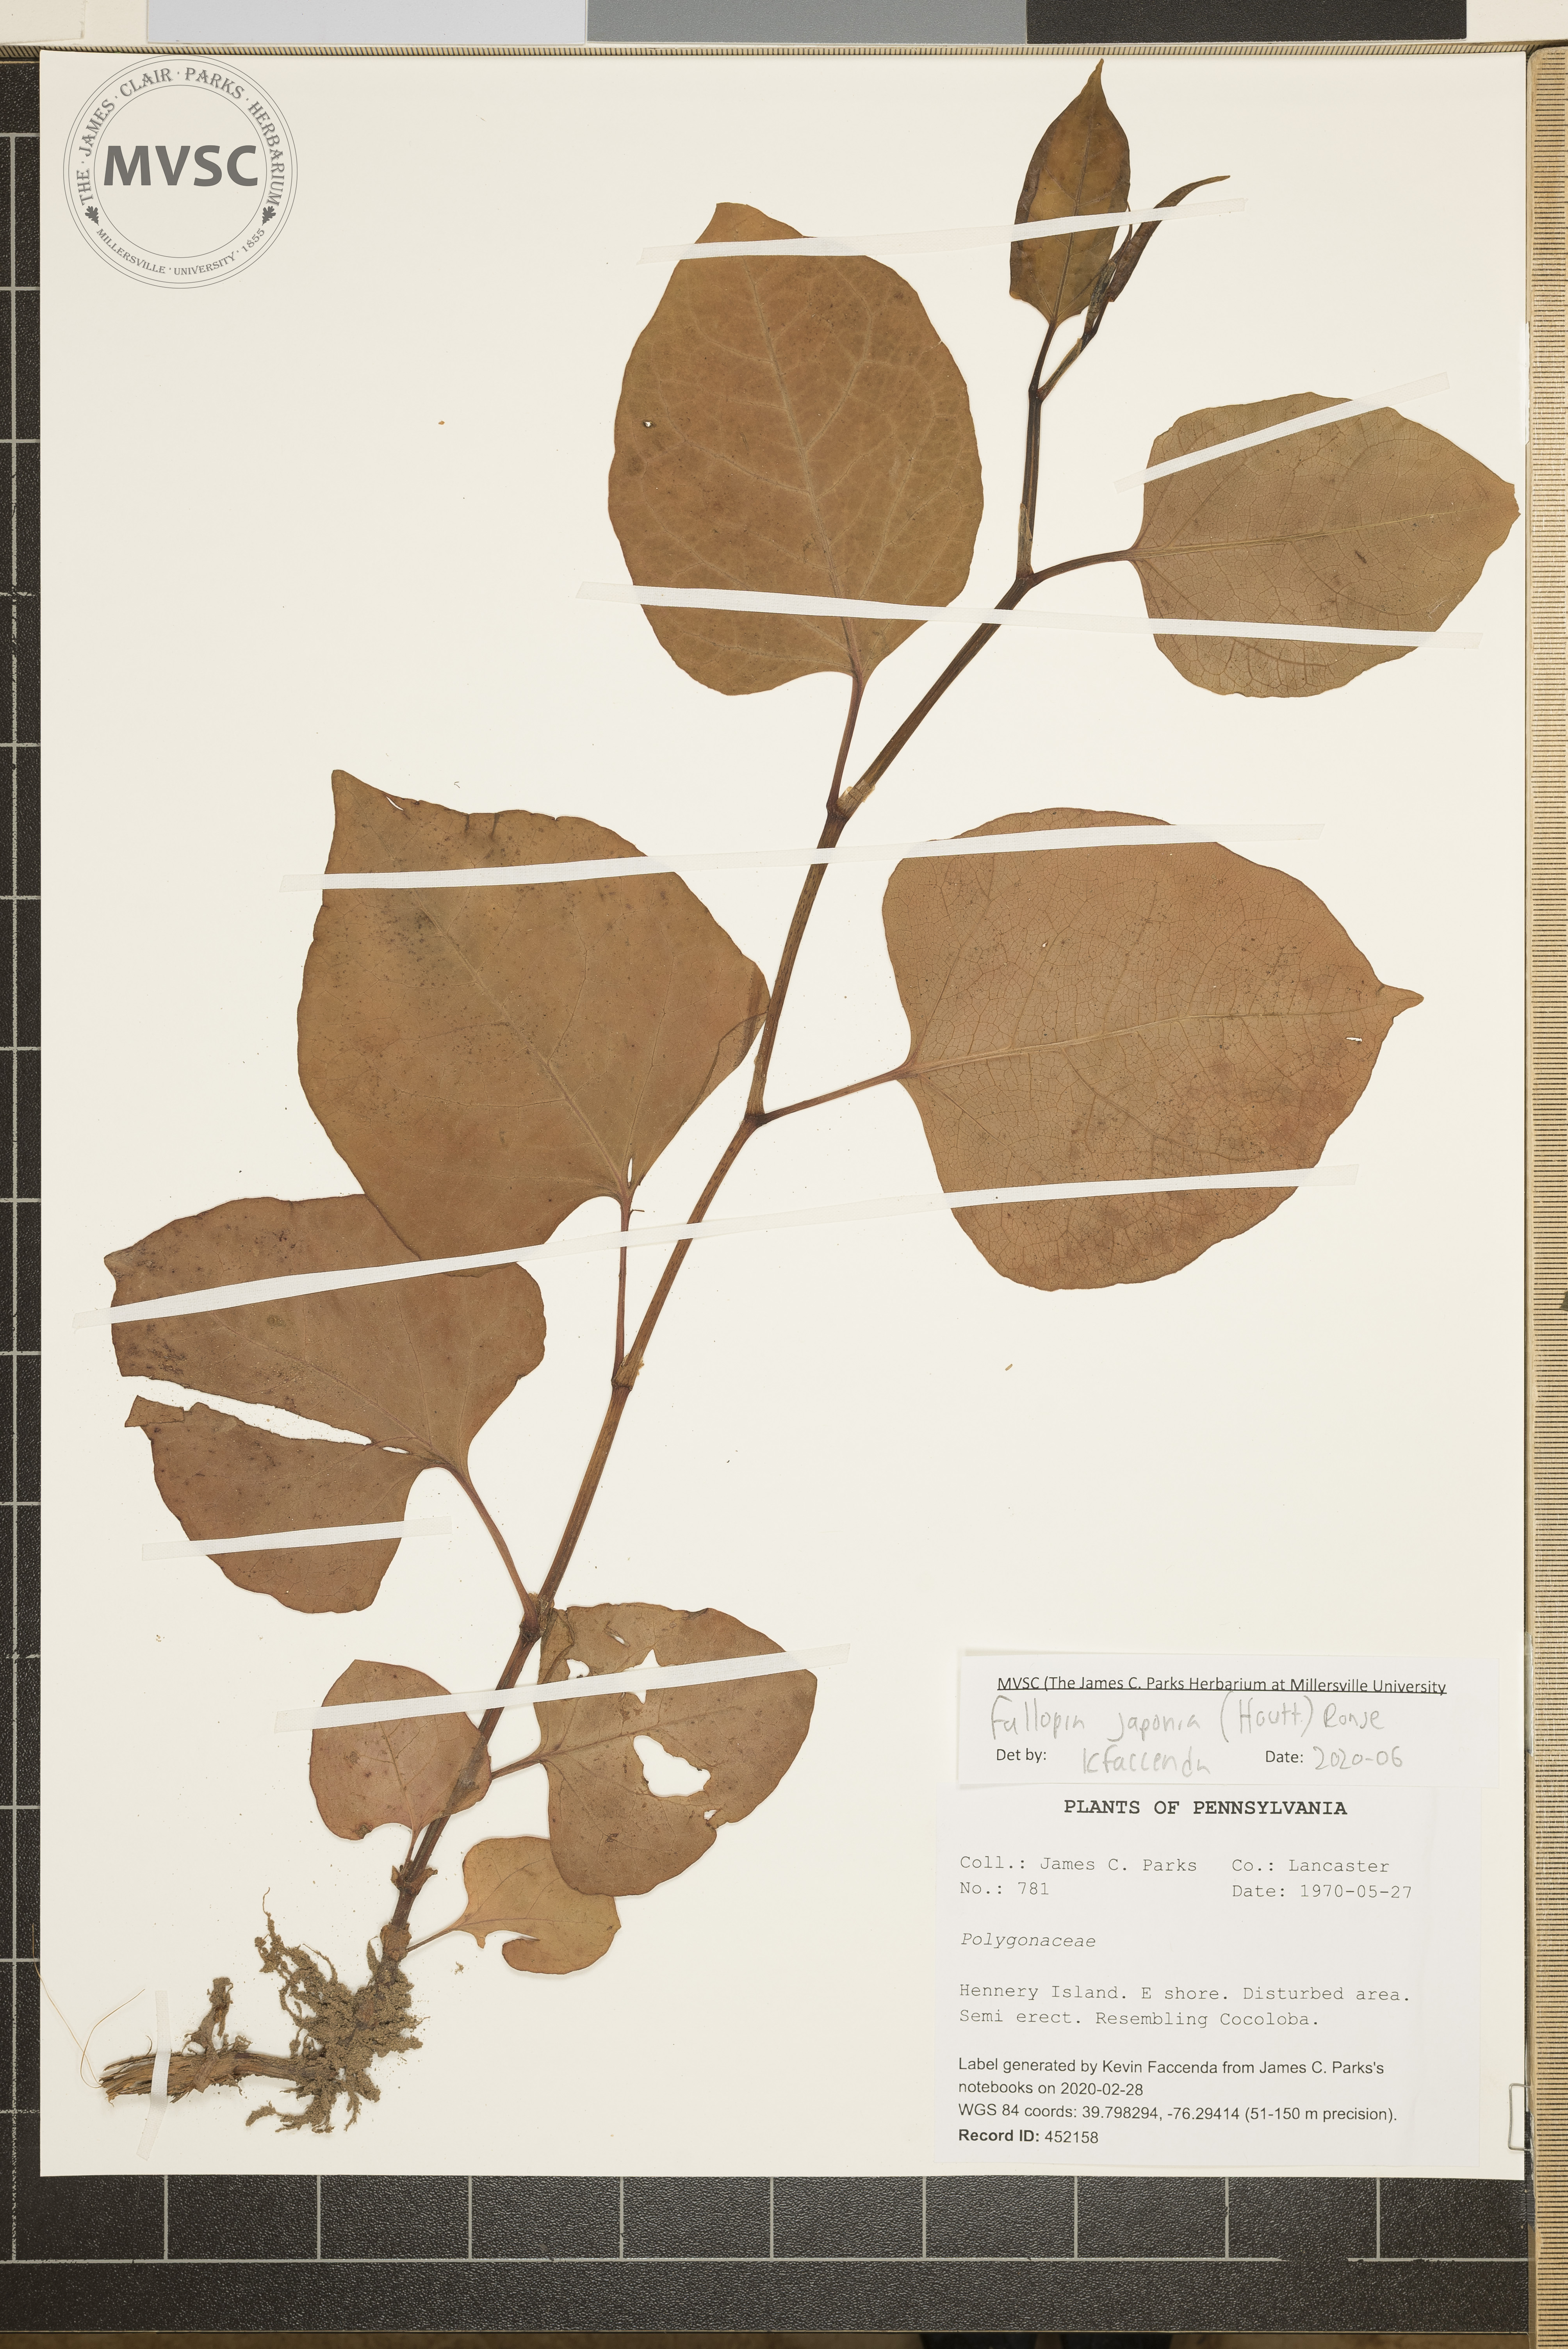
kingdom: Plantae
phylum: Tracheophyta
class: Magnoliopsida
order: Caryophyllales
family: Polygonaceae
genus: Reynoutria
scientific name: Reynoutria japonica
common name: Japanese knotweed
